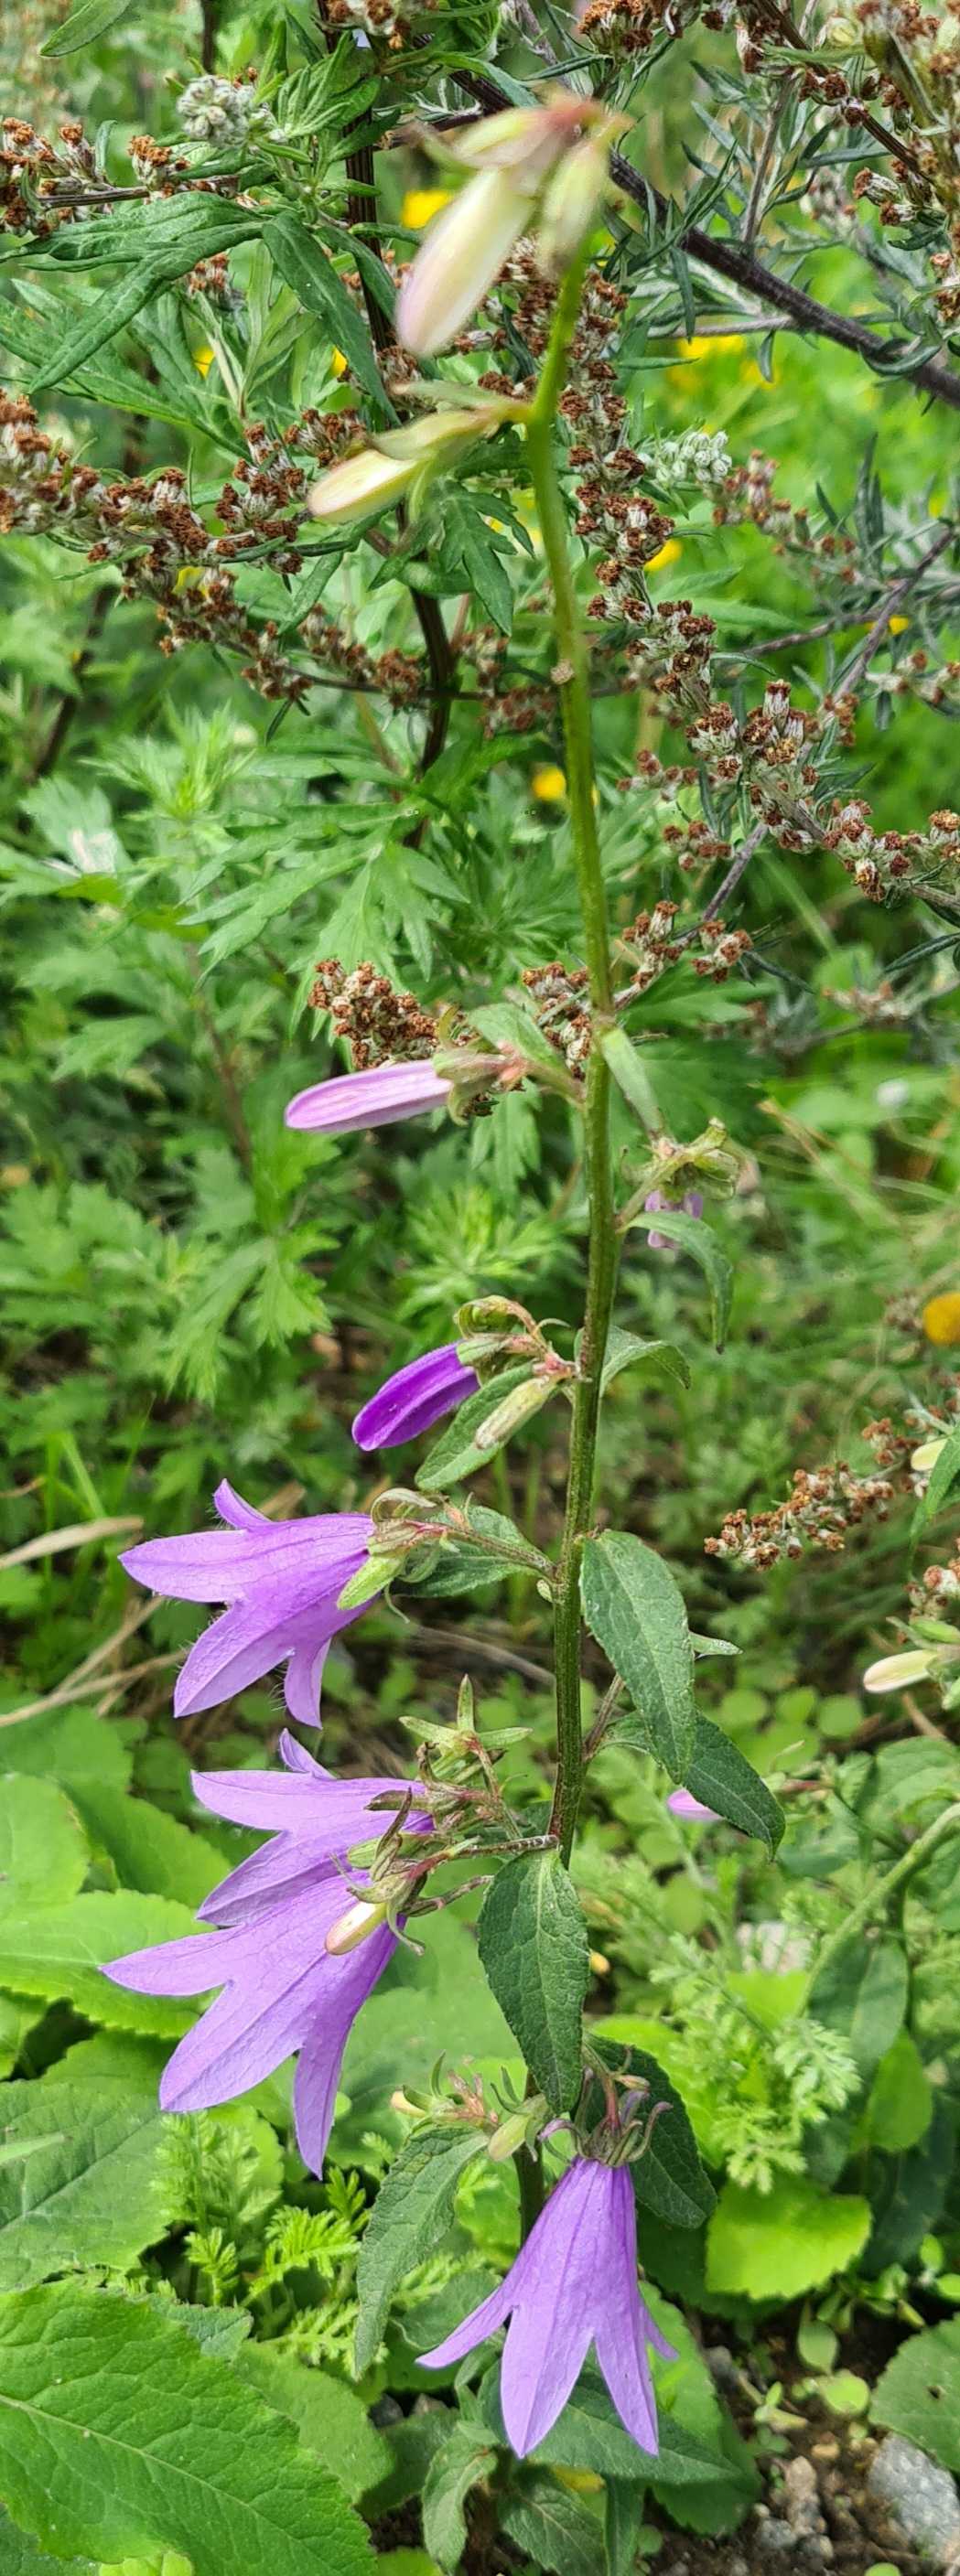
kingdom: Plantae
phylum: Tracheophyta
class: Magnoliopsida
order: Asterales
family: Campanulaceae
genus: Campanula
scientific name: Campanula rapunculoides
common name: Ensidig klokke
